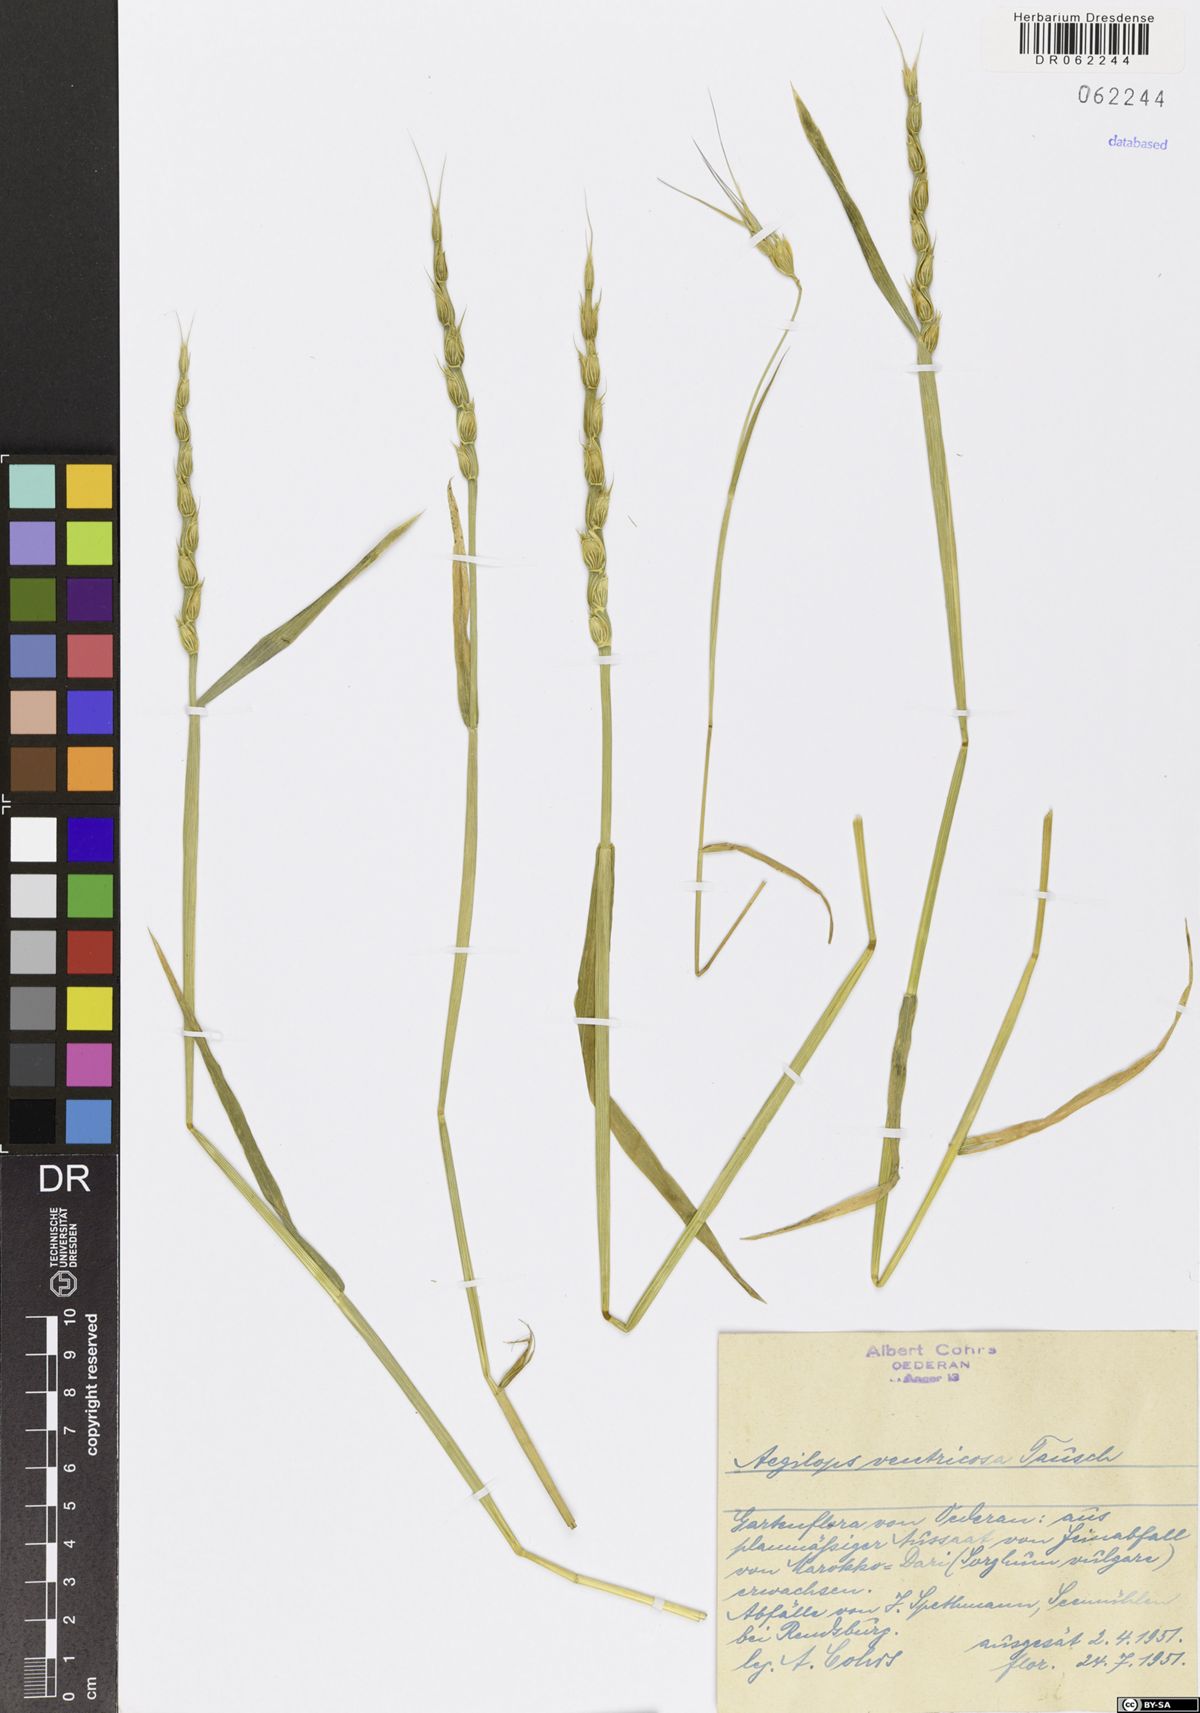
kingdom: Plantae
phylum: Tracheophyta
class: Liliopsida
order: Poales
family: Poaceae
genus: Aegilops
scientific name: Aegilops ventricosa
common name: Swollen goat grass
